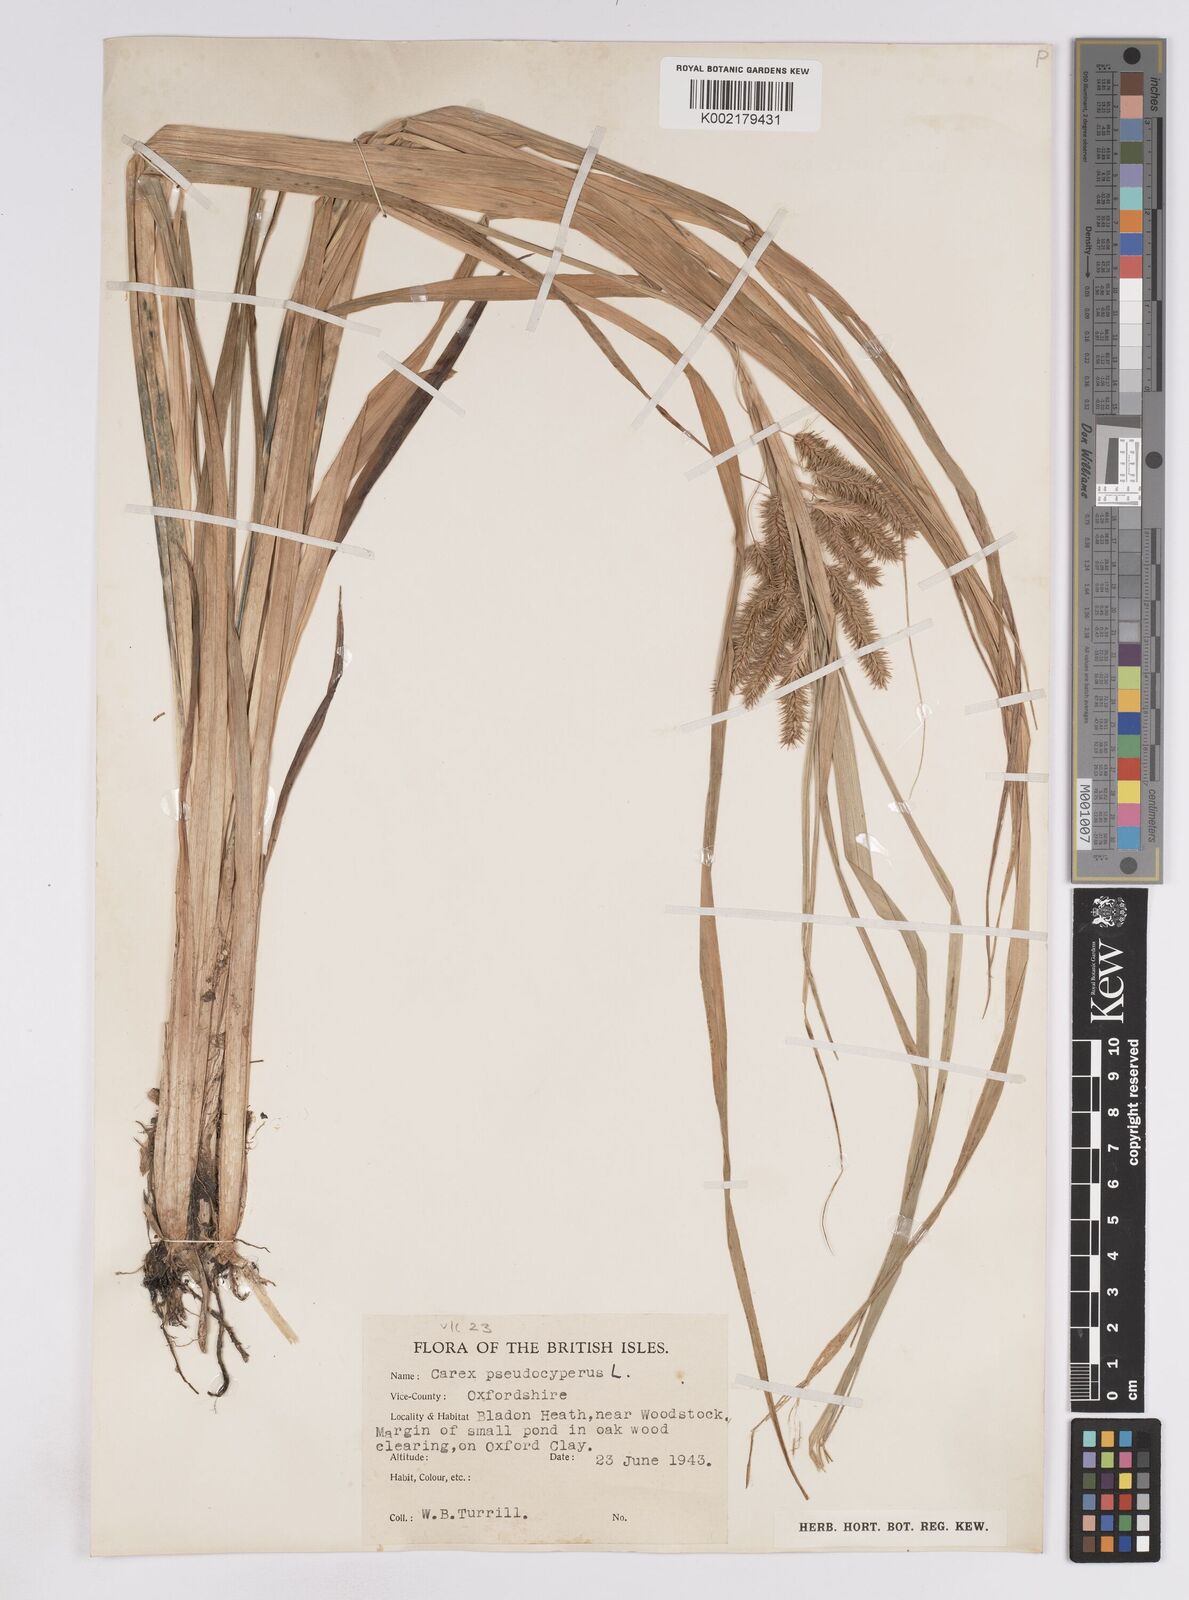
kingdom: Plantae
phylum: Tracheophyta
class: Liliopsida
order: Poales
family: Cyperaceae
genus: Carex
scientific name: Carex pseudocyperus
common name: Cyperus sedge
